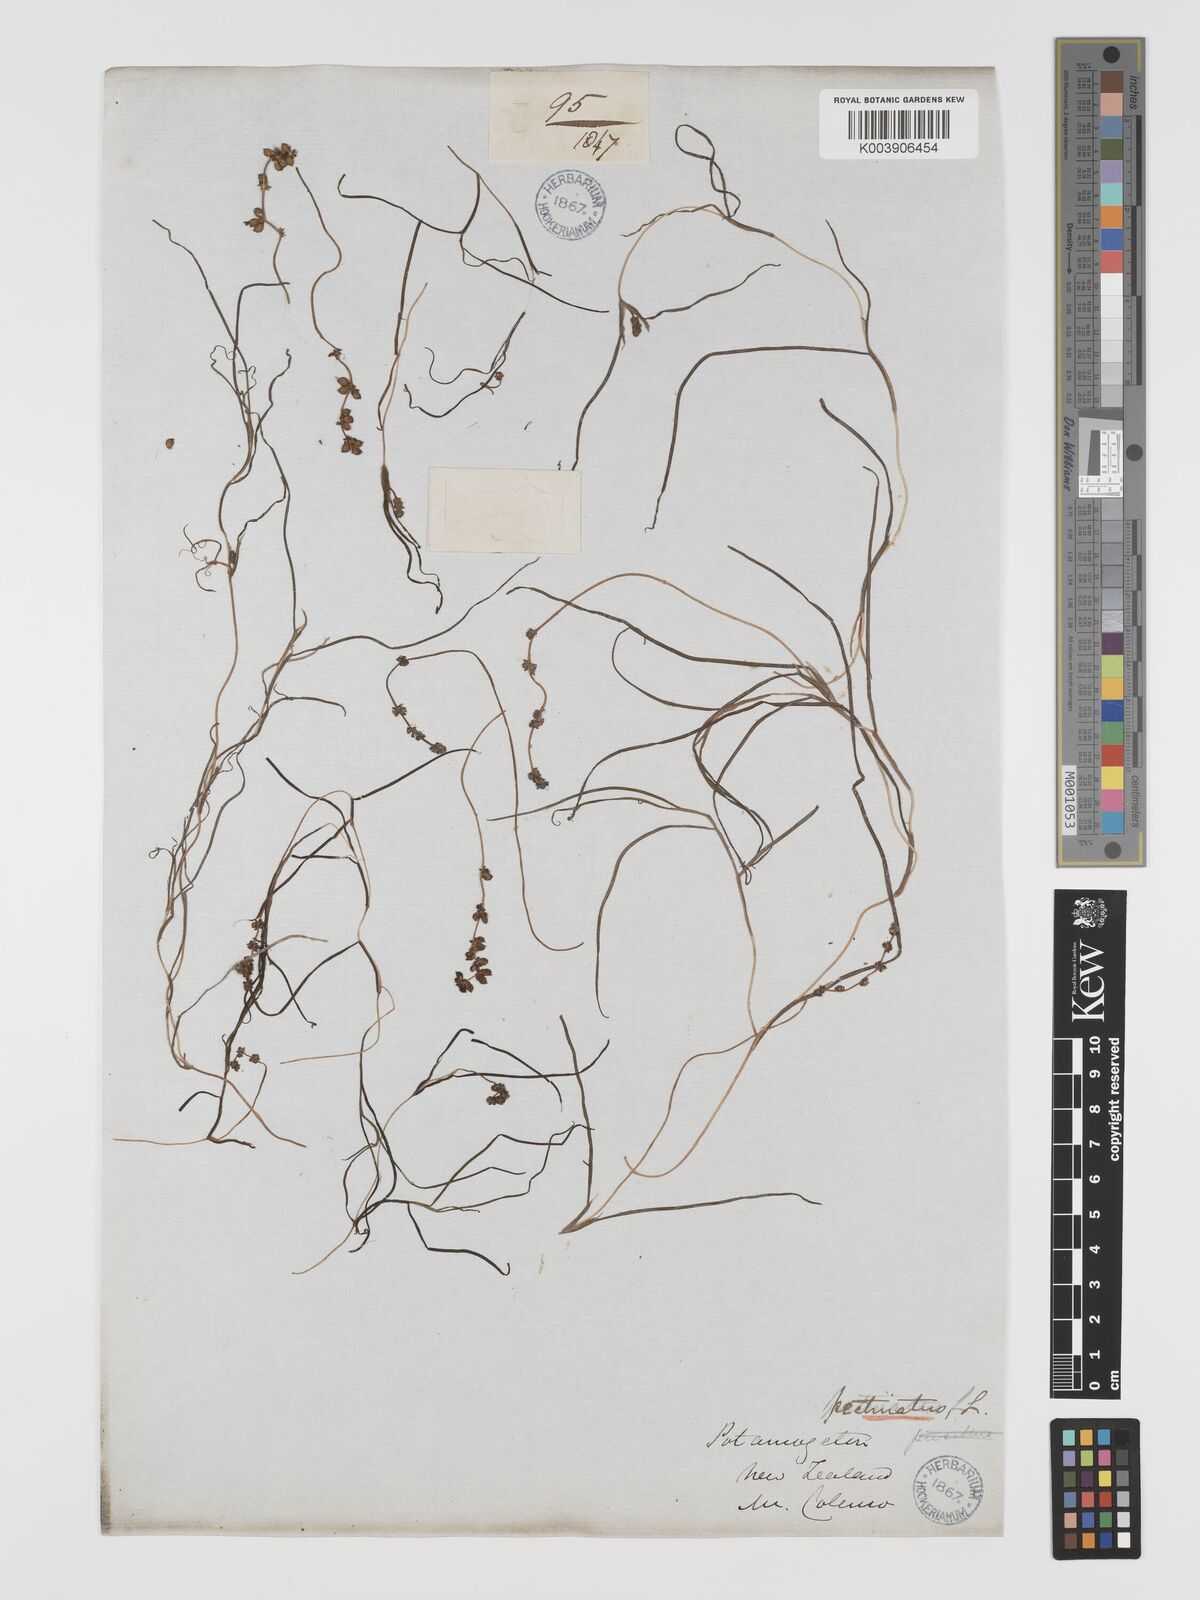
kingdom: Plantae
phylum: Tracheophyta
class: Liliopsida
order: Alismatales
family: Potamogetonaceae
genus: Stuckenia
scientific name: Stuckenia pectinata
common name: Sago pondweed
